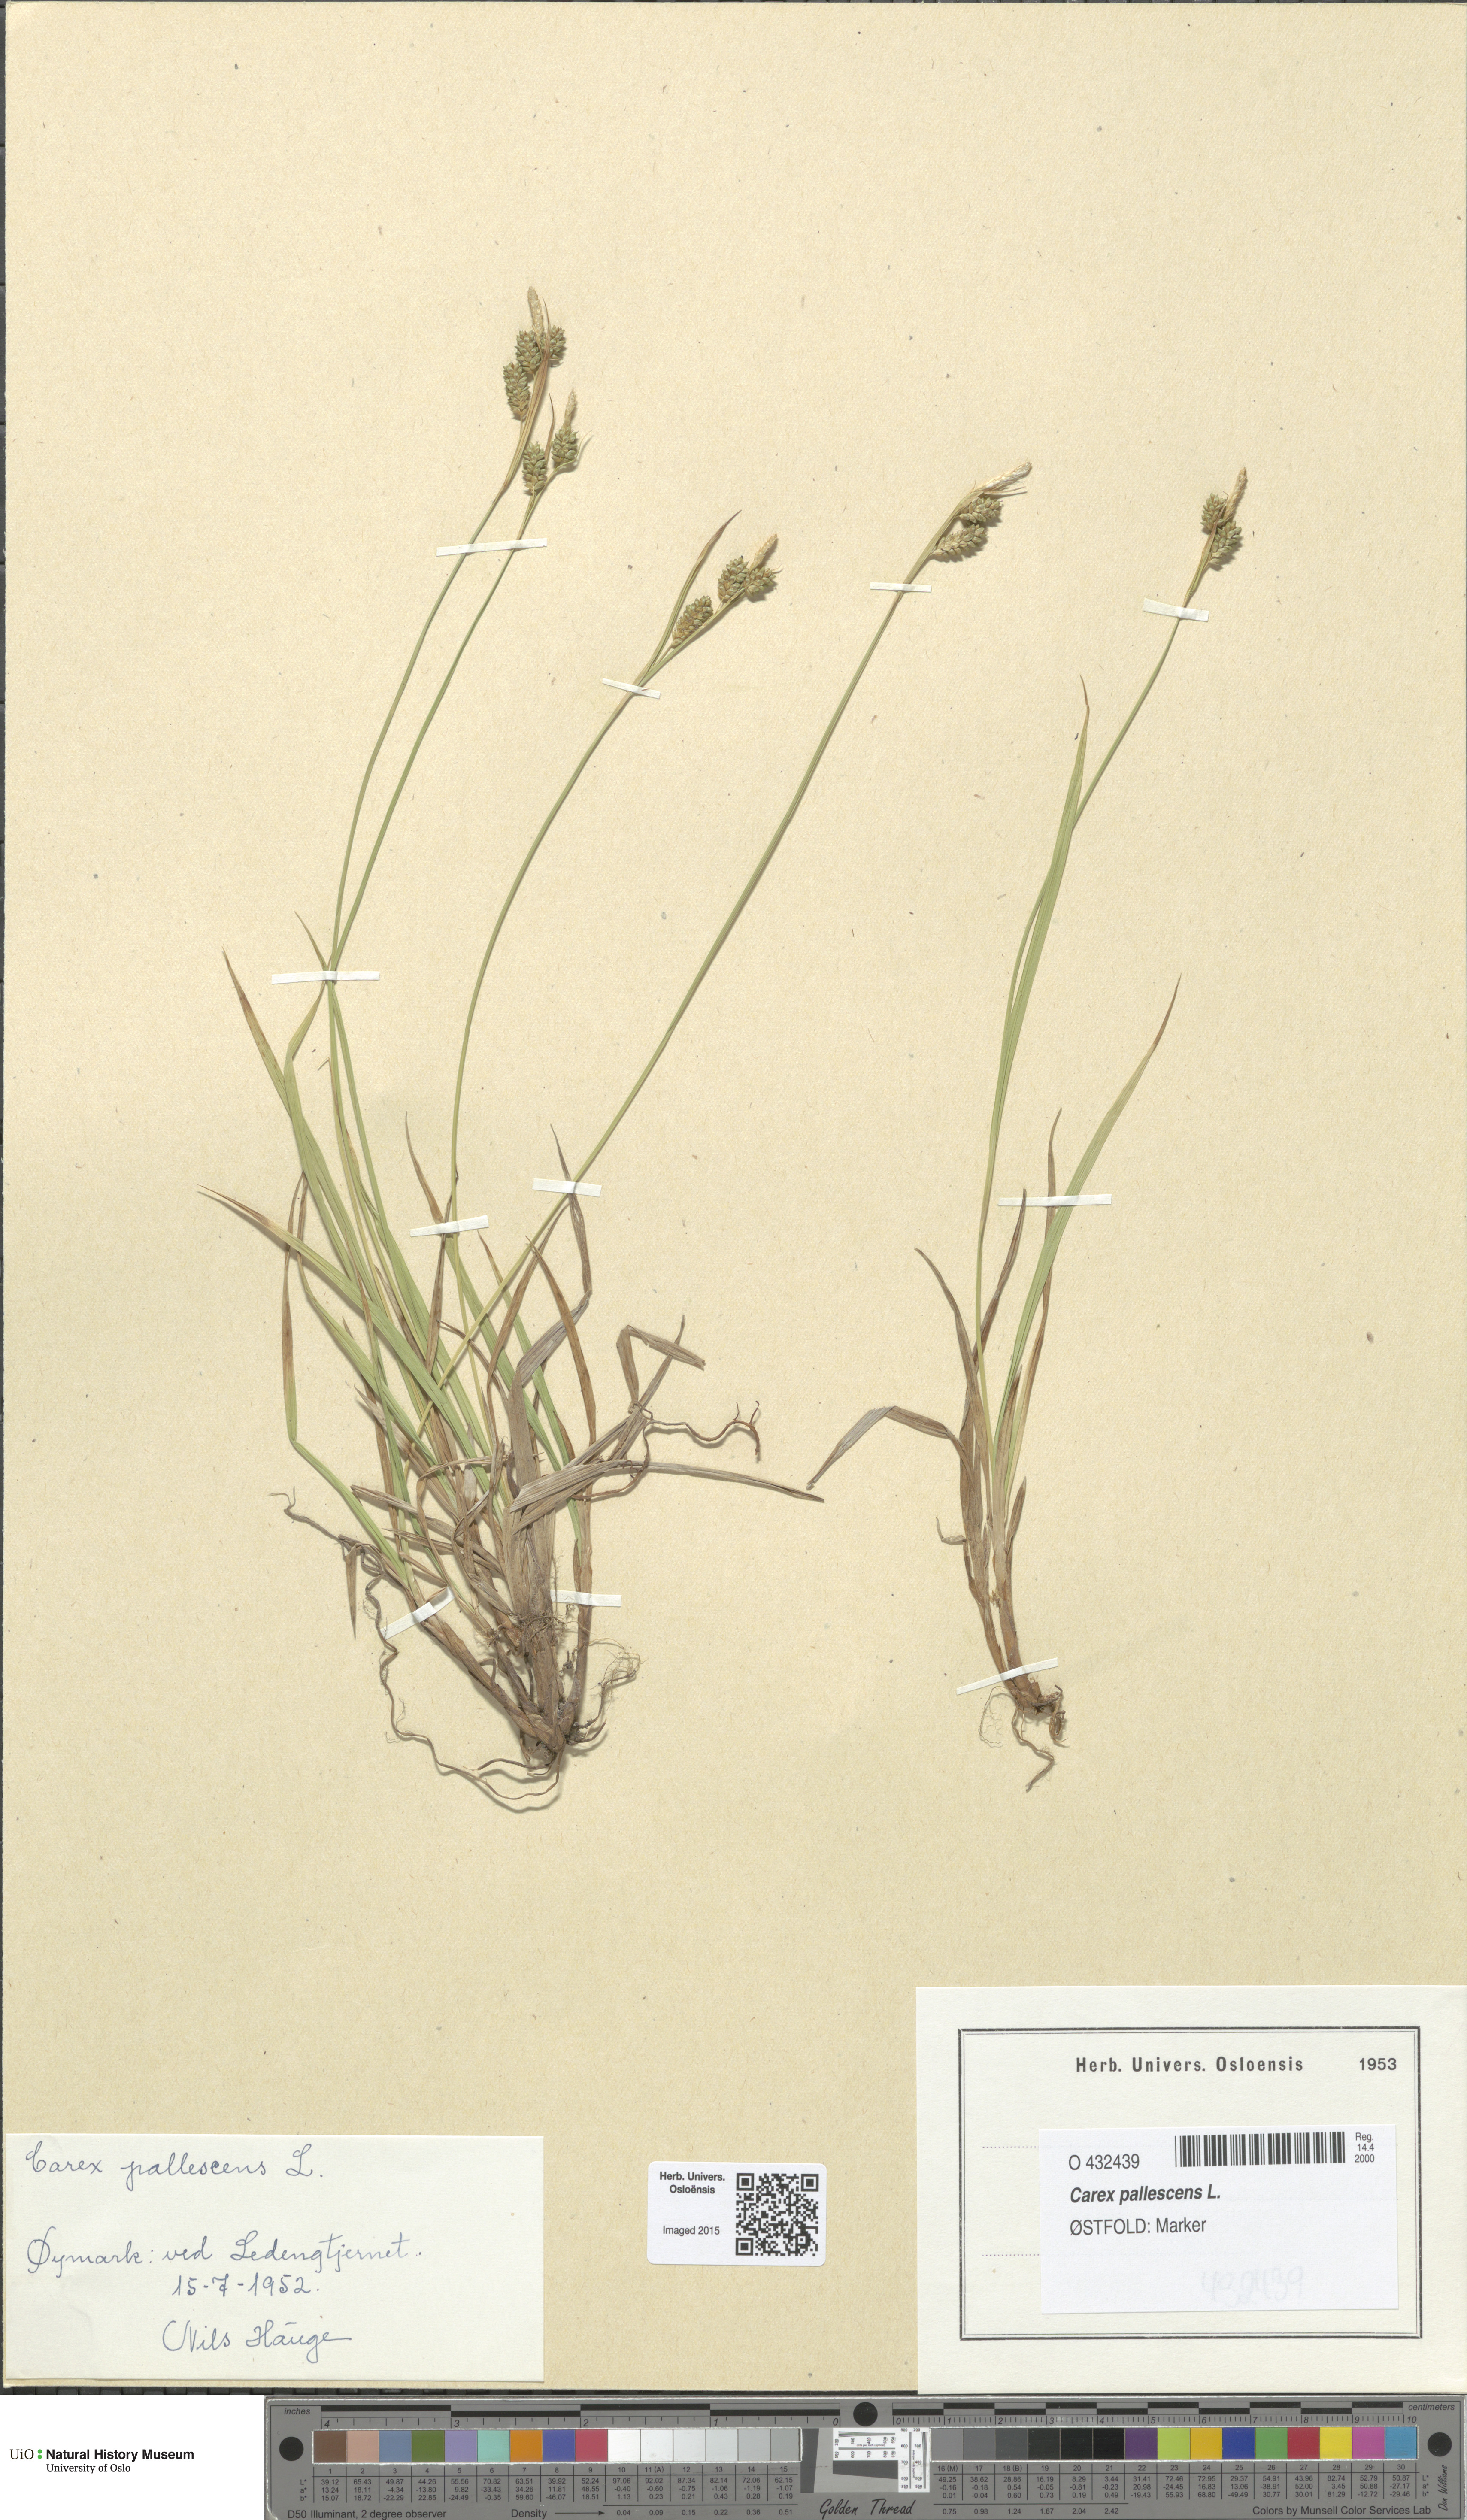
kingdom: Plantae
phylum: Tracheophyta
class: Liliopsida
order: Poales
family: Cyperaceae
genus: Carex
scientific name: Carex pallescens
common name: Pale sedge
